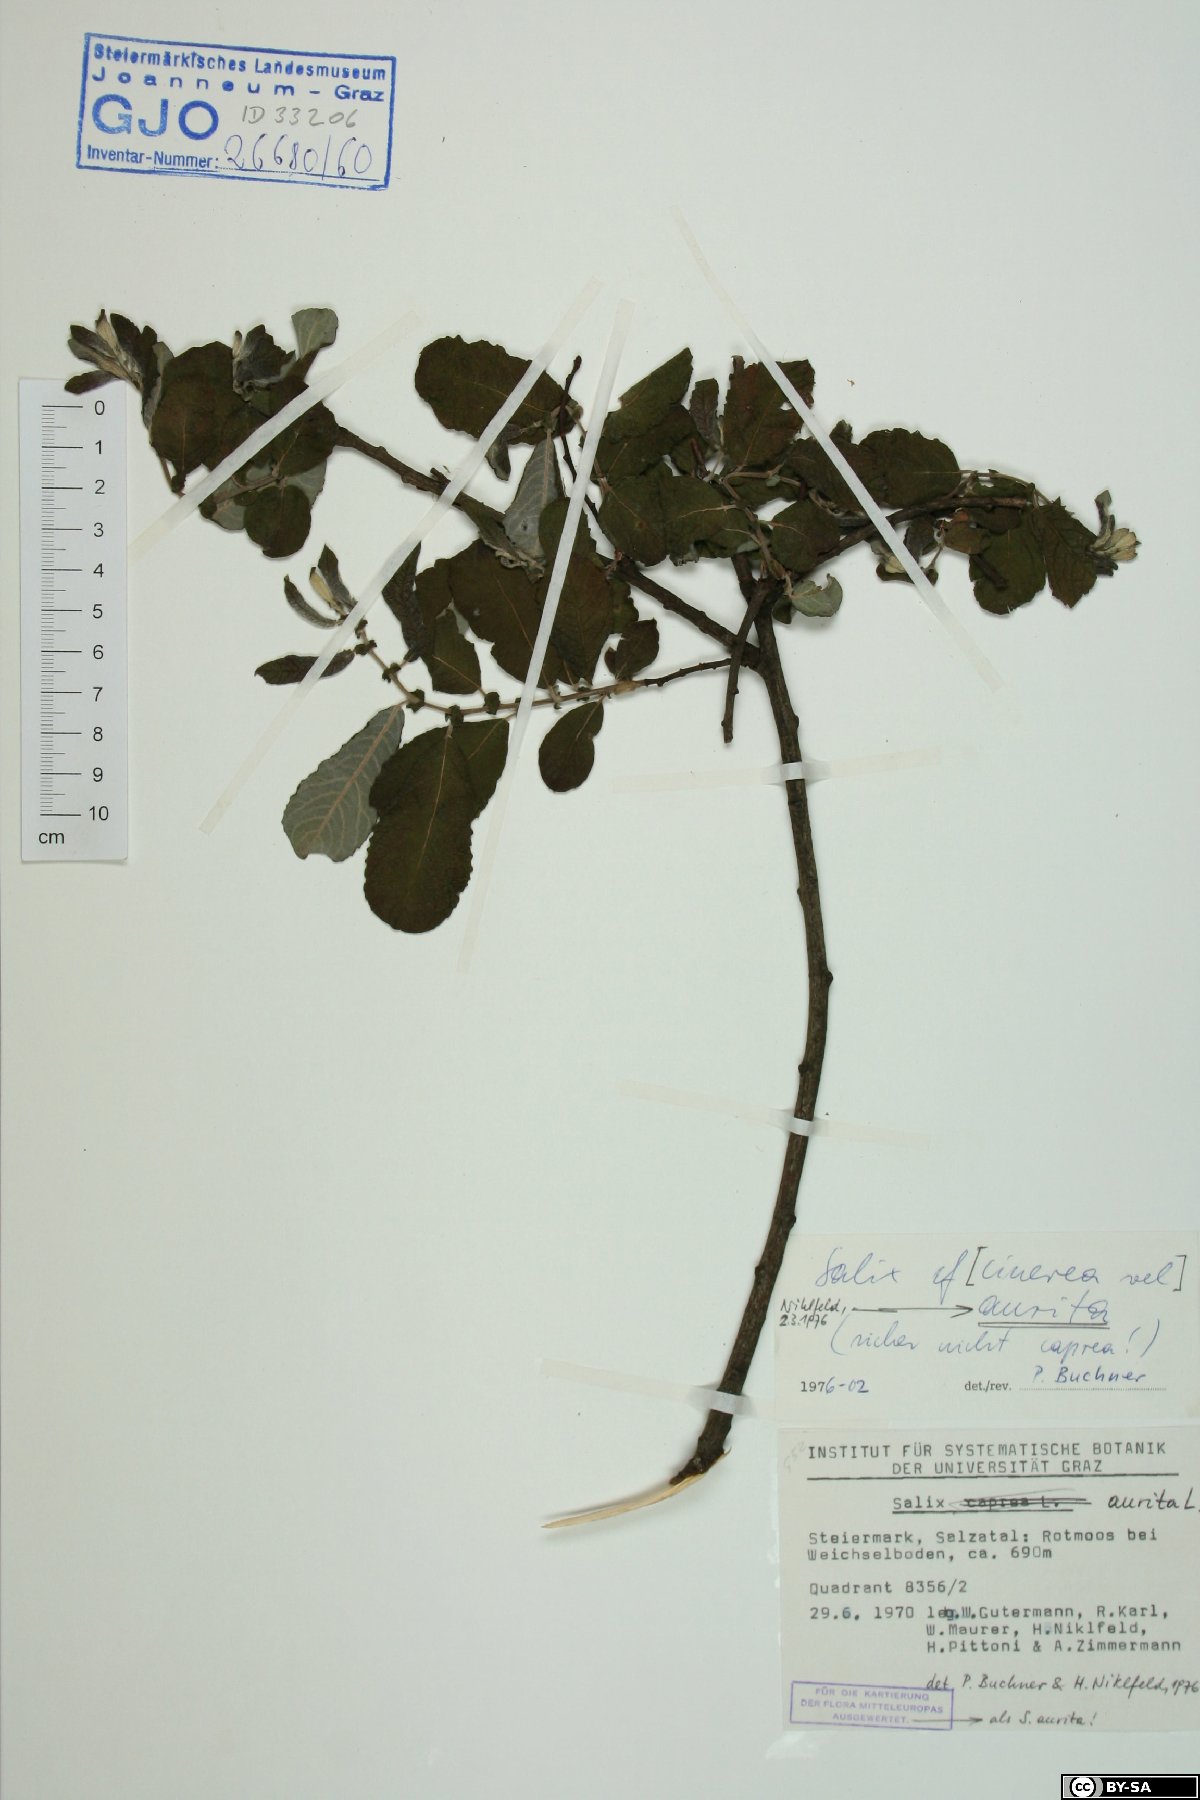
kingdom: Plantae
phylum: Tracheophyta
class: Magnoliopsida
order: Malpighiales
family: Salicaceae
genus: Salix
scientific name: Salix aurita
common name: Eared willow
